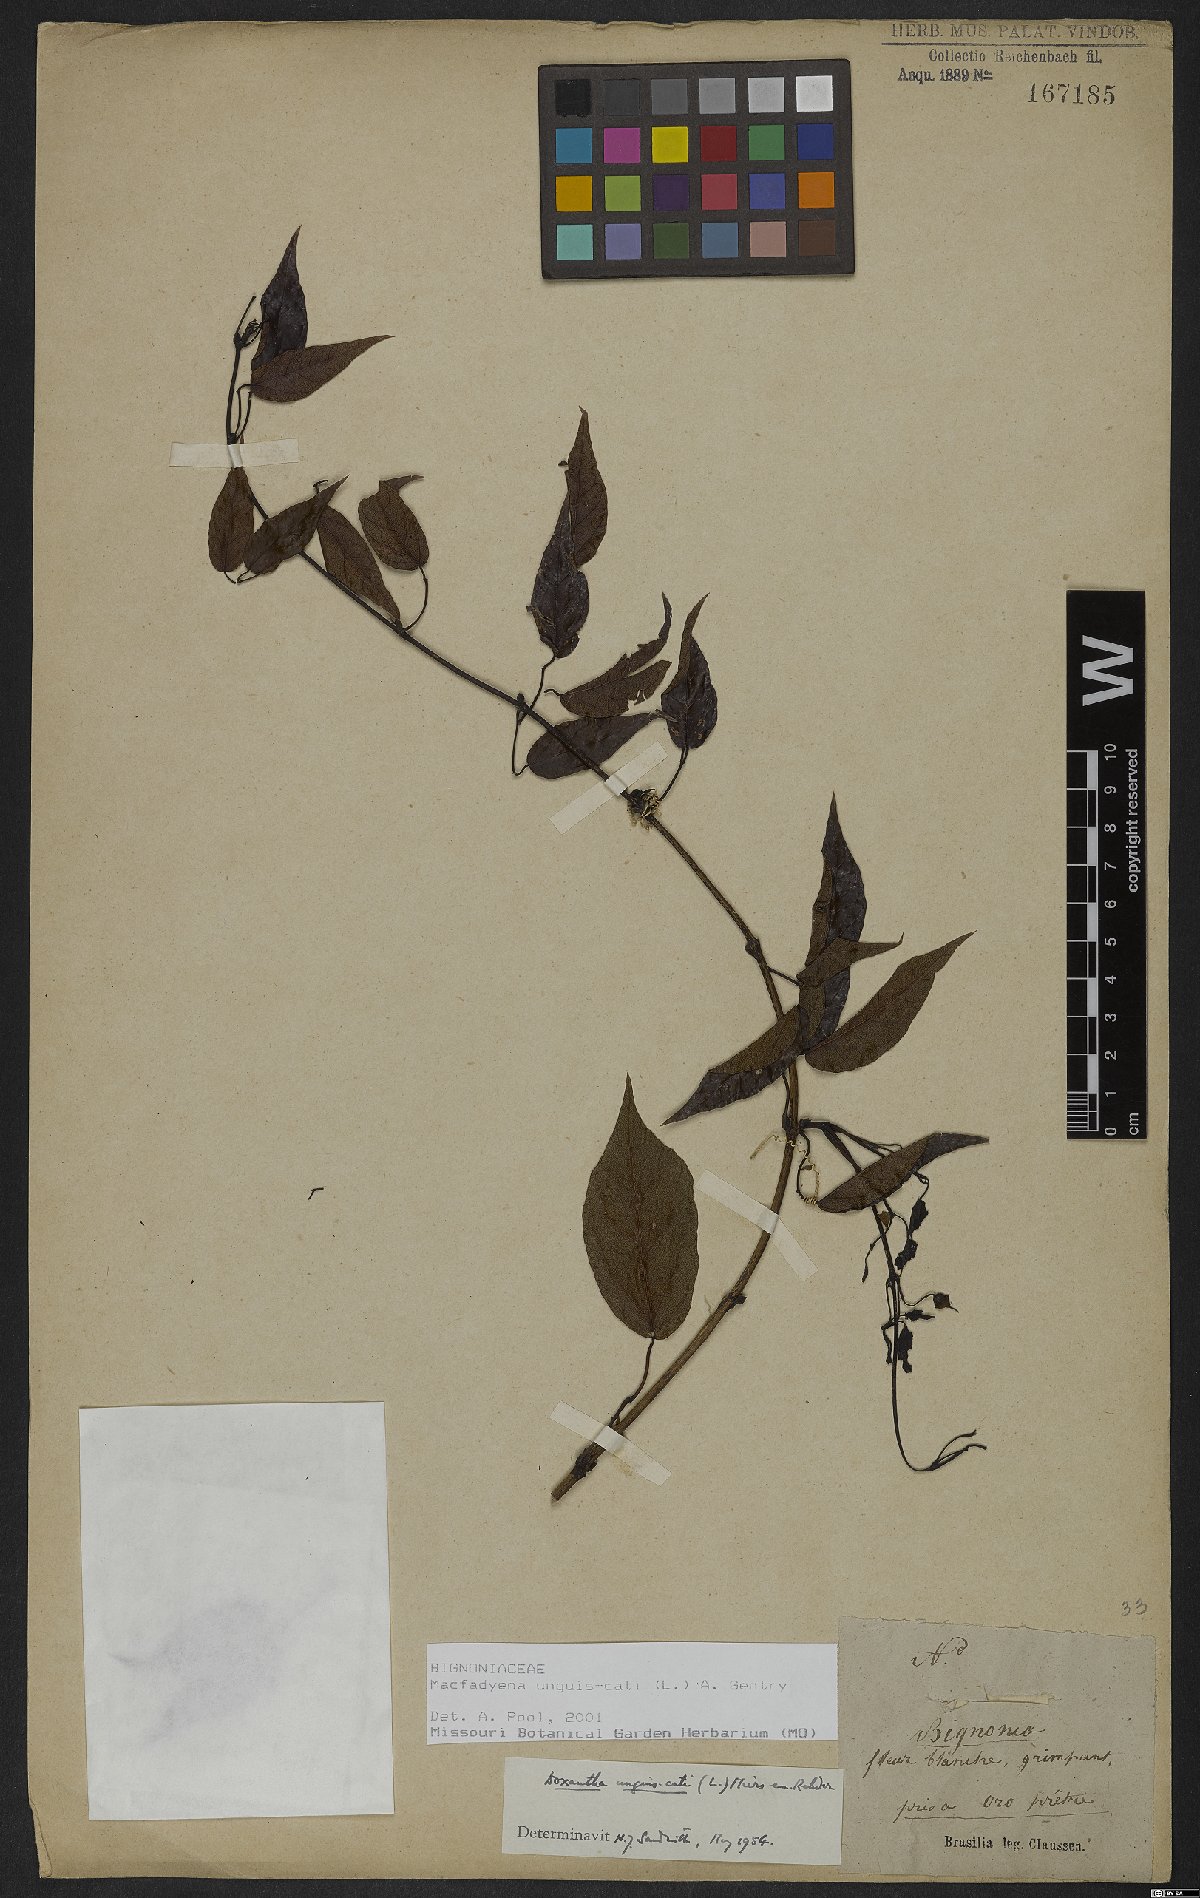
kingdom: Plantae
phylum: Tracheophyta
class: Magnoliopsida
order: Lamiales
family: Bignoniaceae
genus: Dolichandra
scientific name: Dolichandra unguis-cati
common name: Catclaw vine
